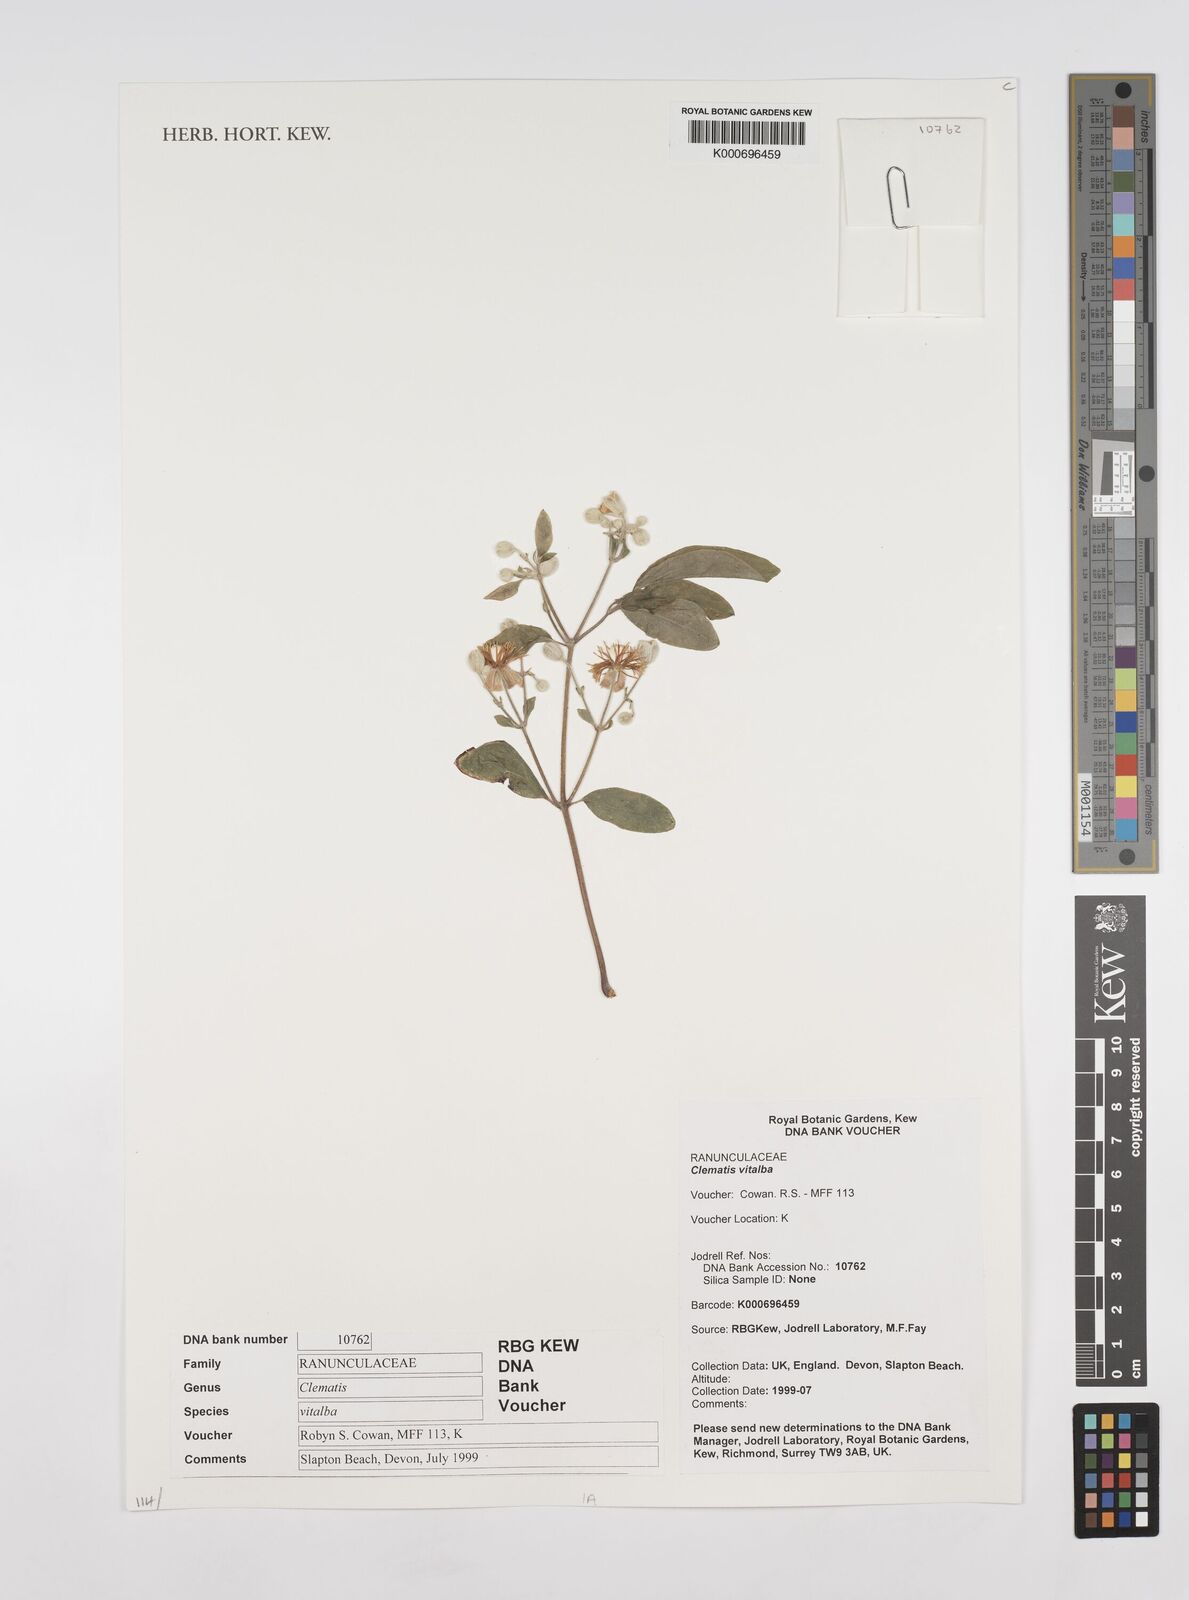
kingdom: Plantae
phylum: Tracheophyta
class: Magnoliopsida
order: Ranunculales
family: Ranunculaceae
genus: Clematis
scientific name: Clematis vitalba
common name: Evergreen clematis
